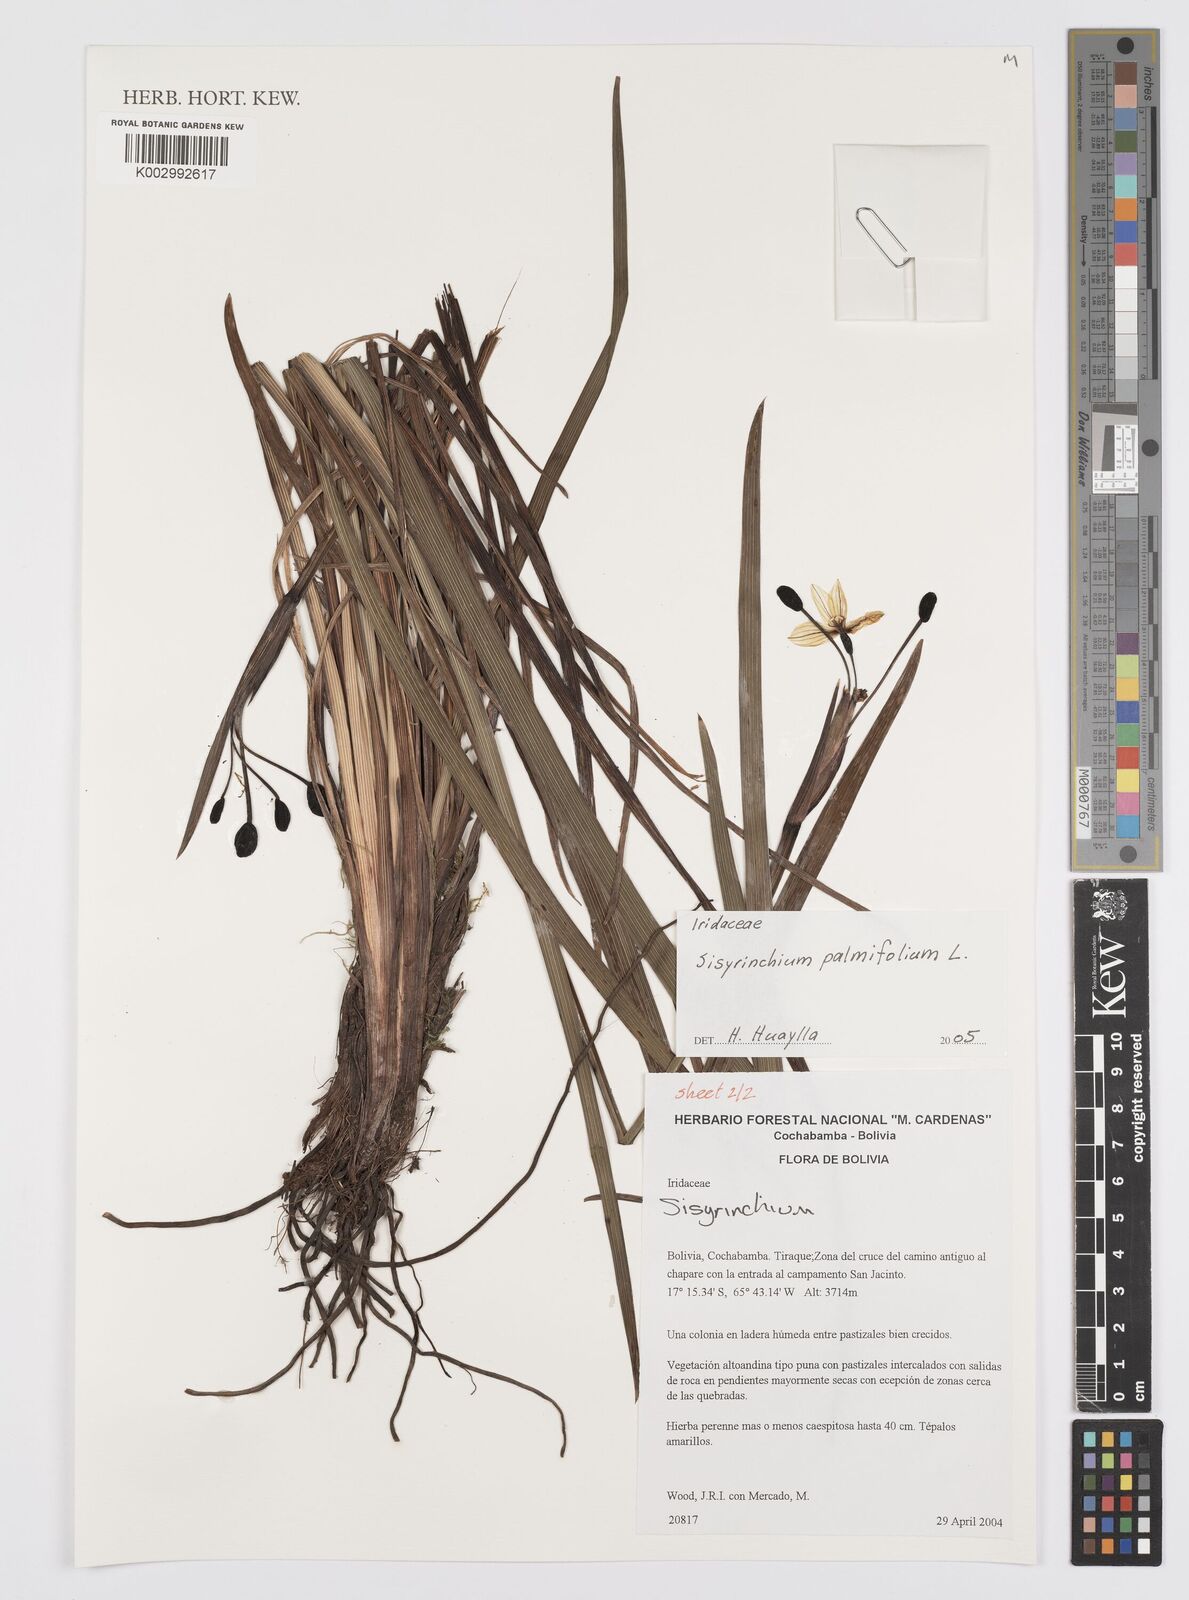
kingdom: Plantae
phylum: Tracheophyta
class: Liliopsida
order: Asparagales
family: Iridaceae
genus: Sisyrinchium
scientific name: Sisyrinchium palmifolium
